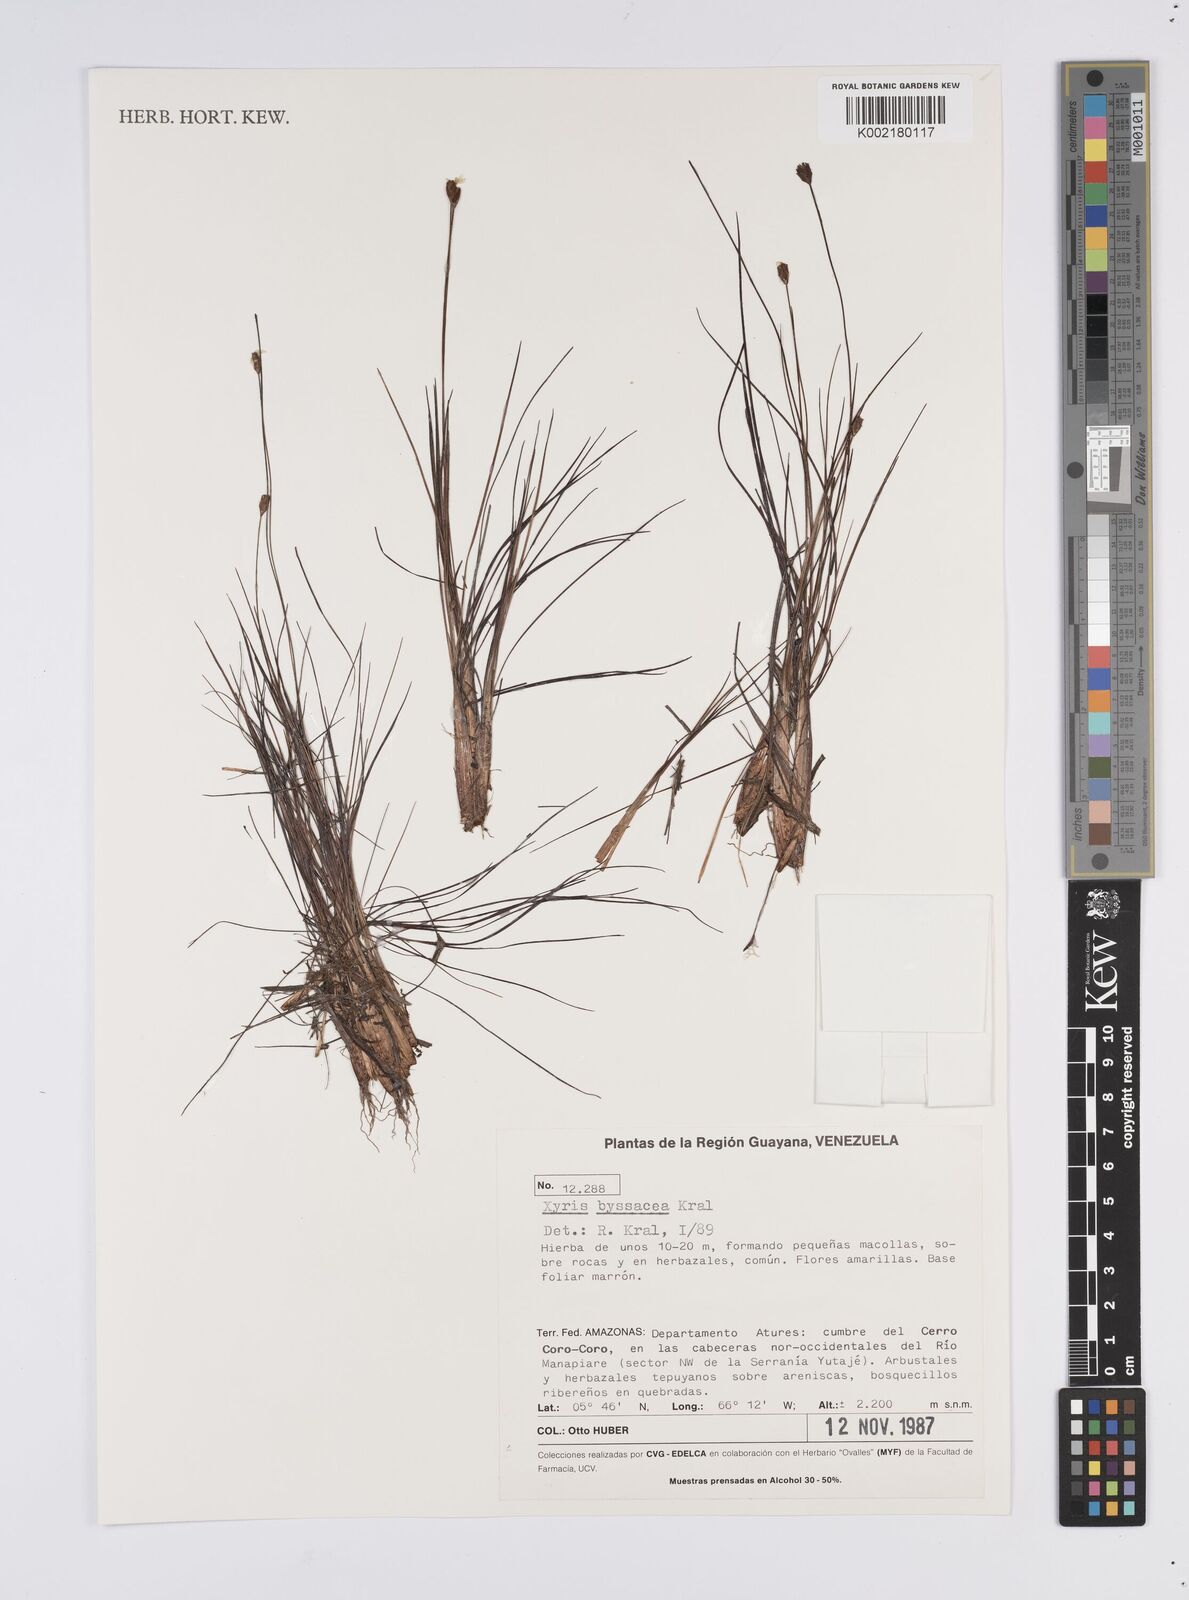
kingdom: Plantae
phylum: Tracheophyta
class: Liliopsida
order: Poales
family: Xyridaceae
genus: Xyris
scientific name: Xyris byssacea
